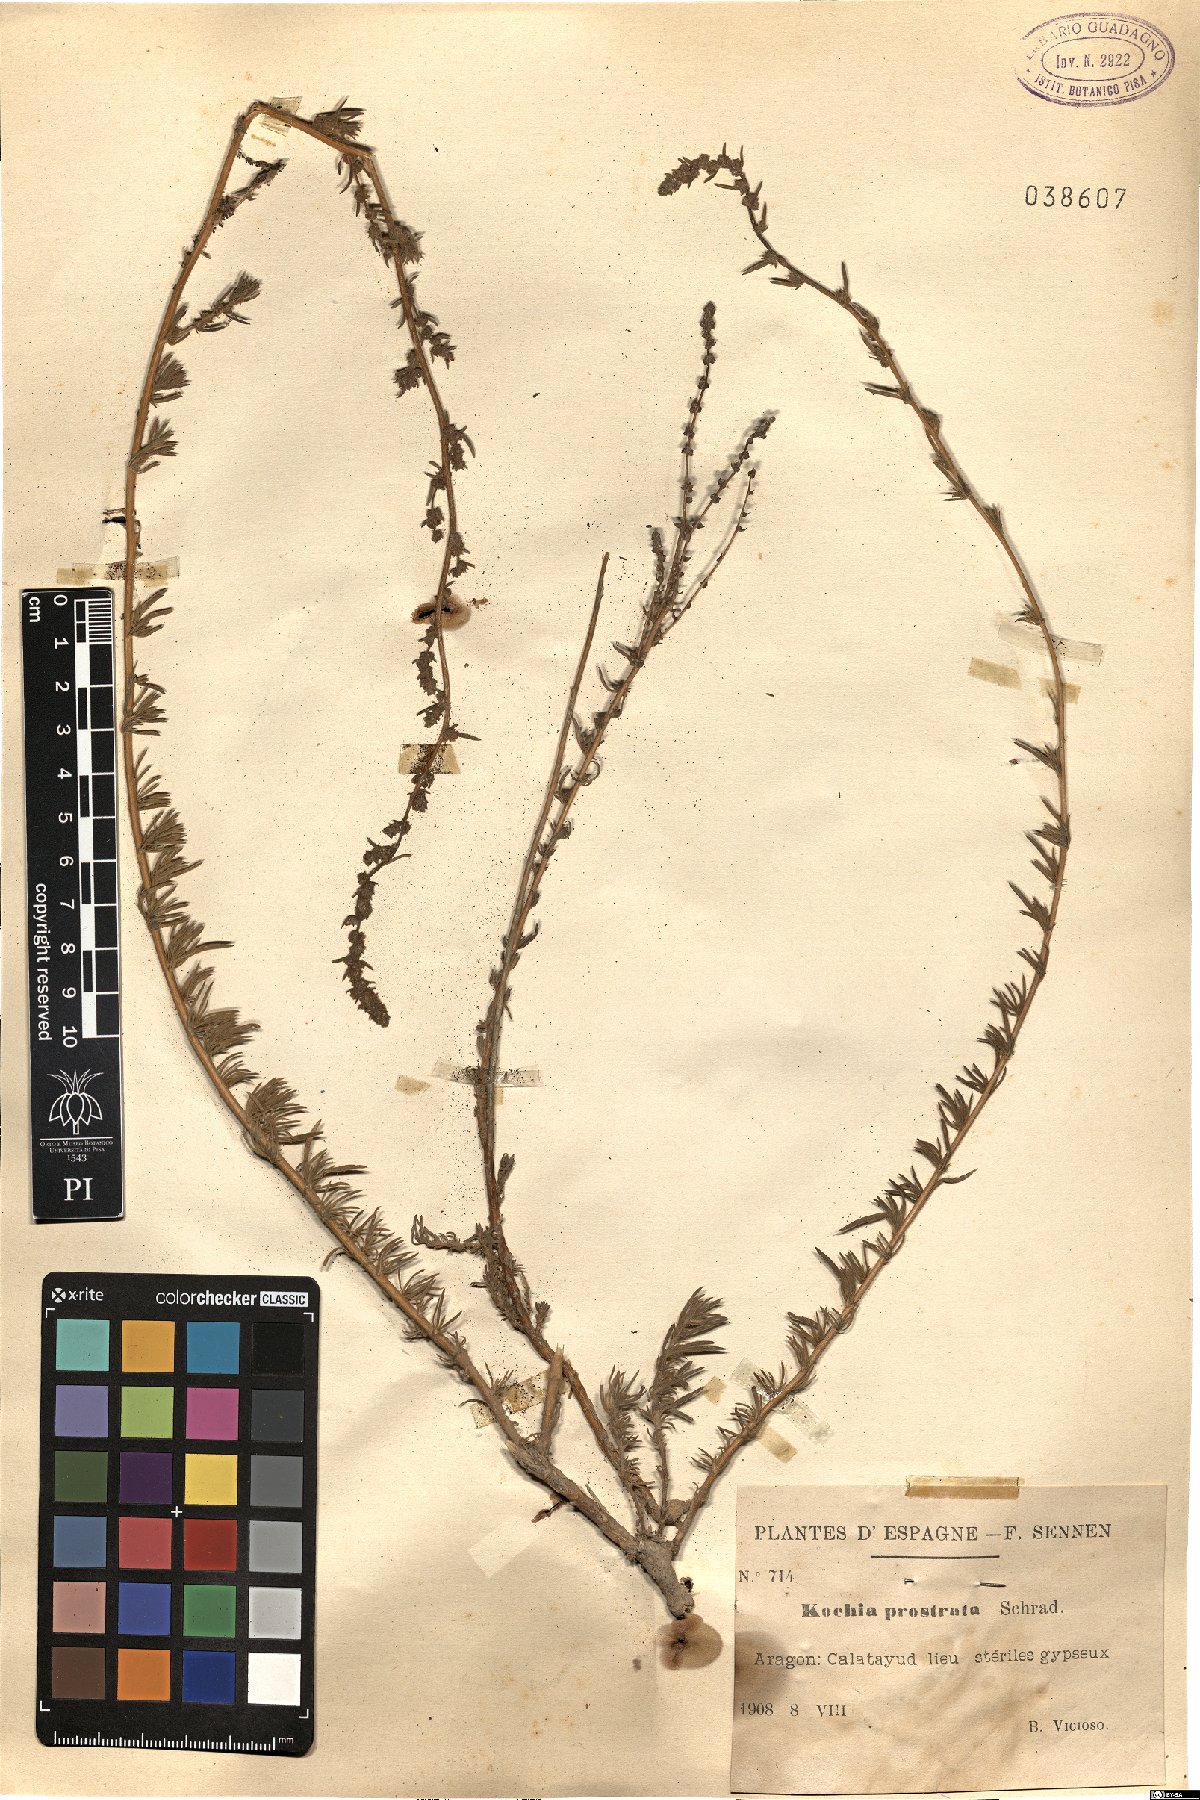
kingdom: Plantae
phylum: Tracheophyta
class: Magnoliopsida
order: Caryophyllales
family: Amaranthaceae
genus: Bassia
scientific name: Bassia prostrata
